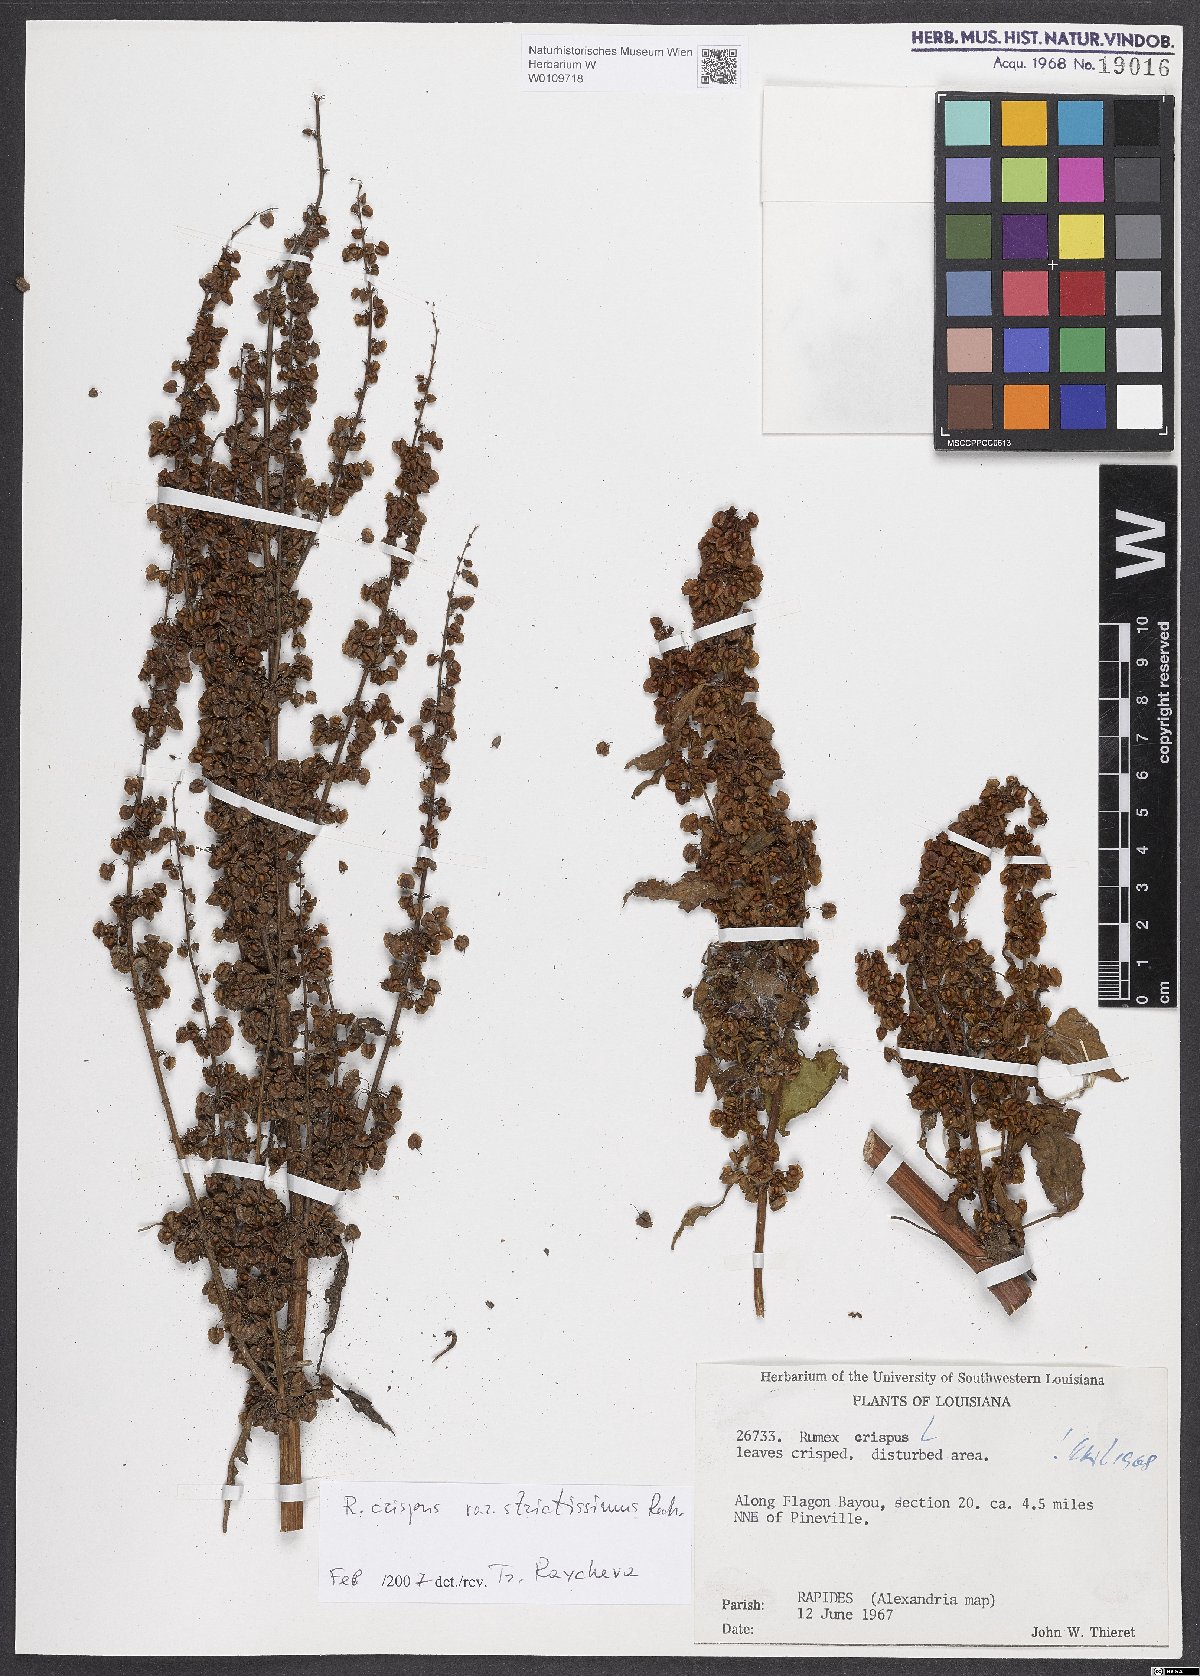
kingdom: Plantae
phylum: Tracheophyta
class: Magnoliopsida
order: Caryophyllales
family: Polygonaceae
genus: Rumex
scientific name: Rumex crispus
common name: Curled dock
